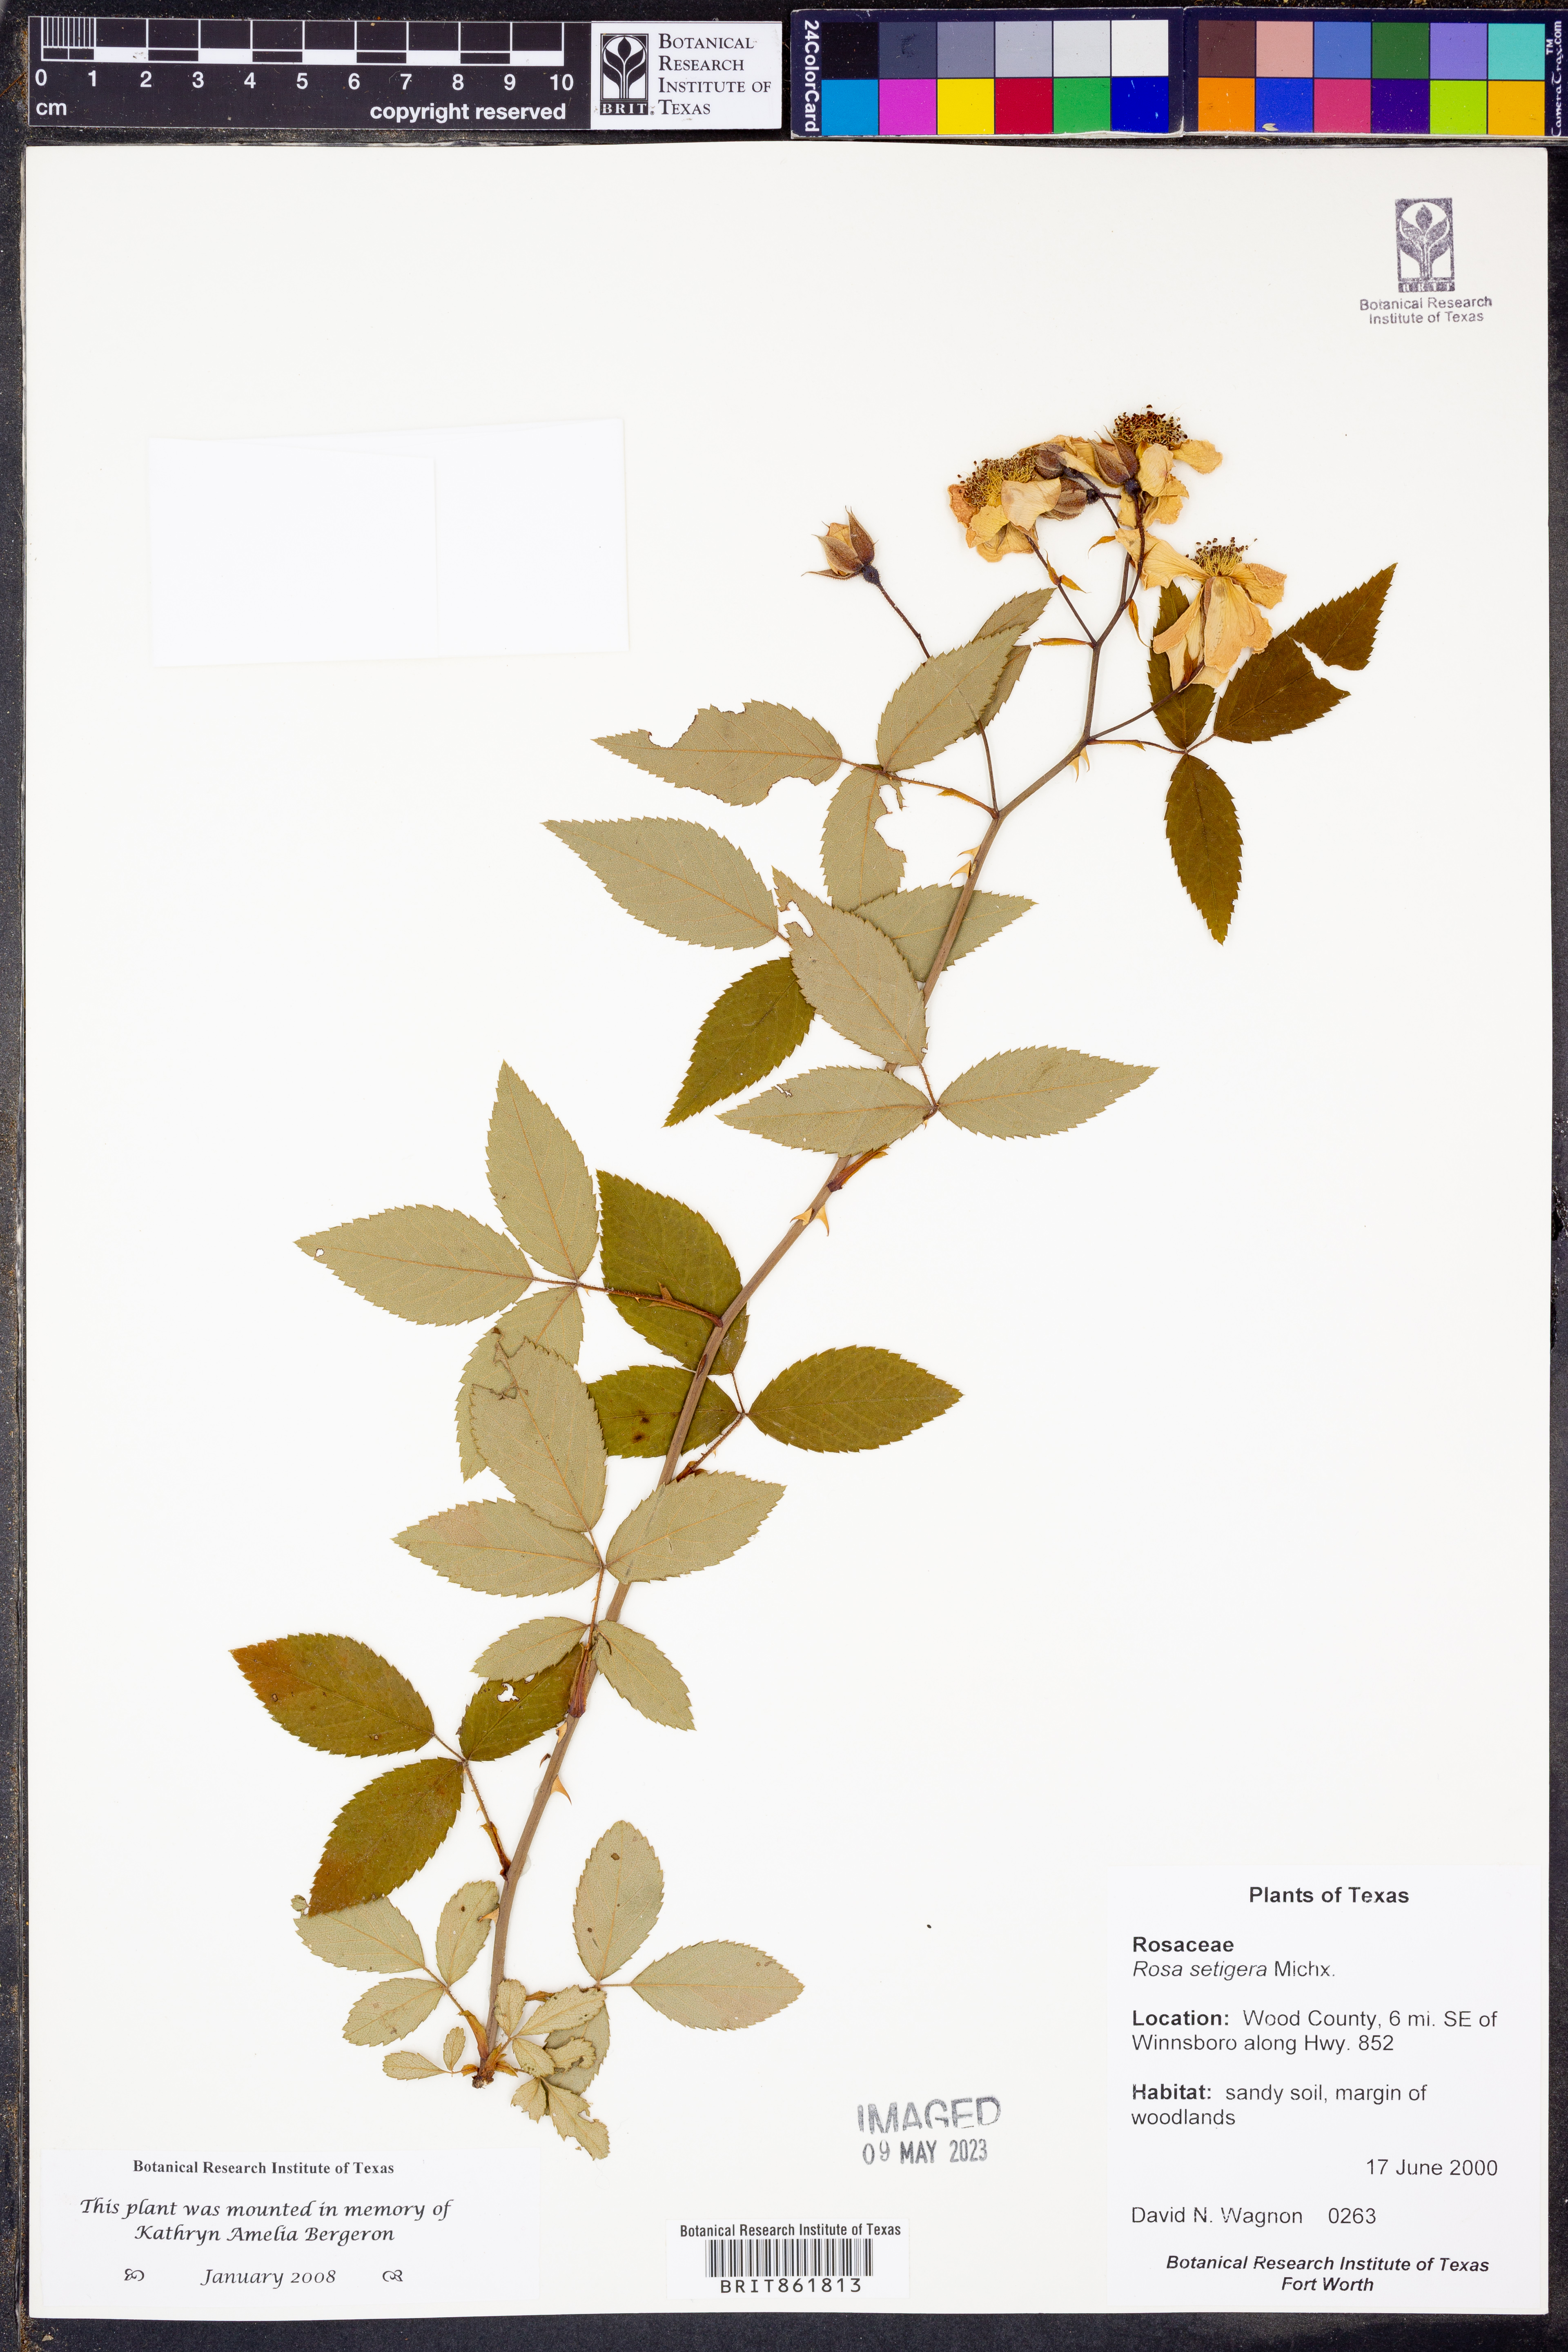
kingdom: Plantae
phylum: Tracheophyta
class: Magnoliopsida
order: Rosales
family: Rosaceae
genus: Rosa
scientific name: Rosa setigera
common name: Prairie rose
